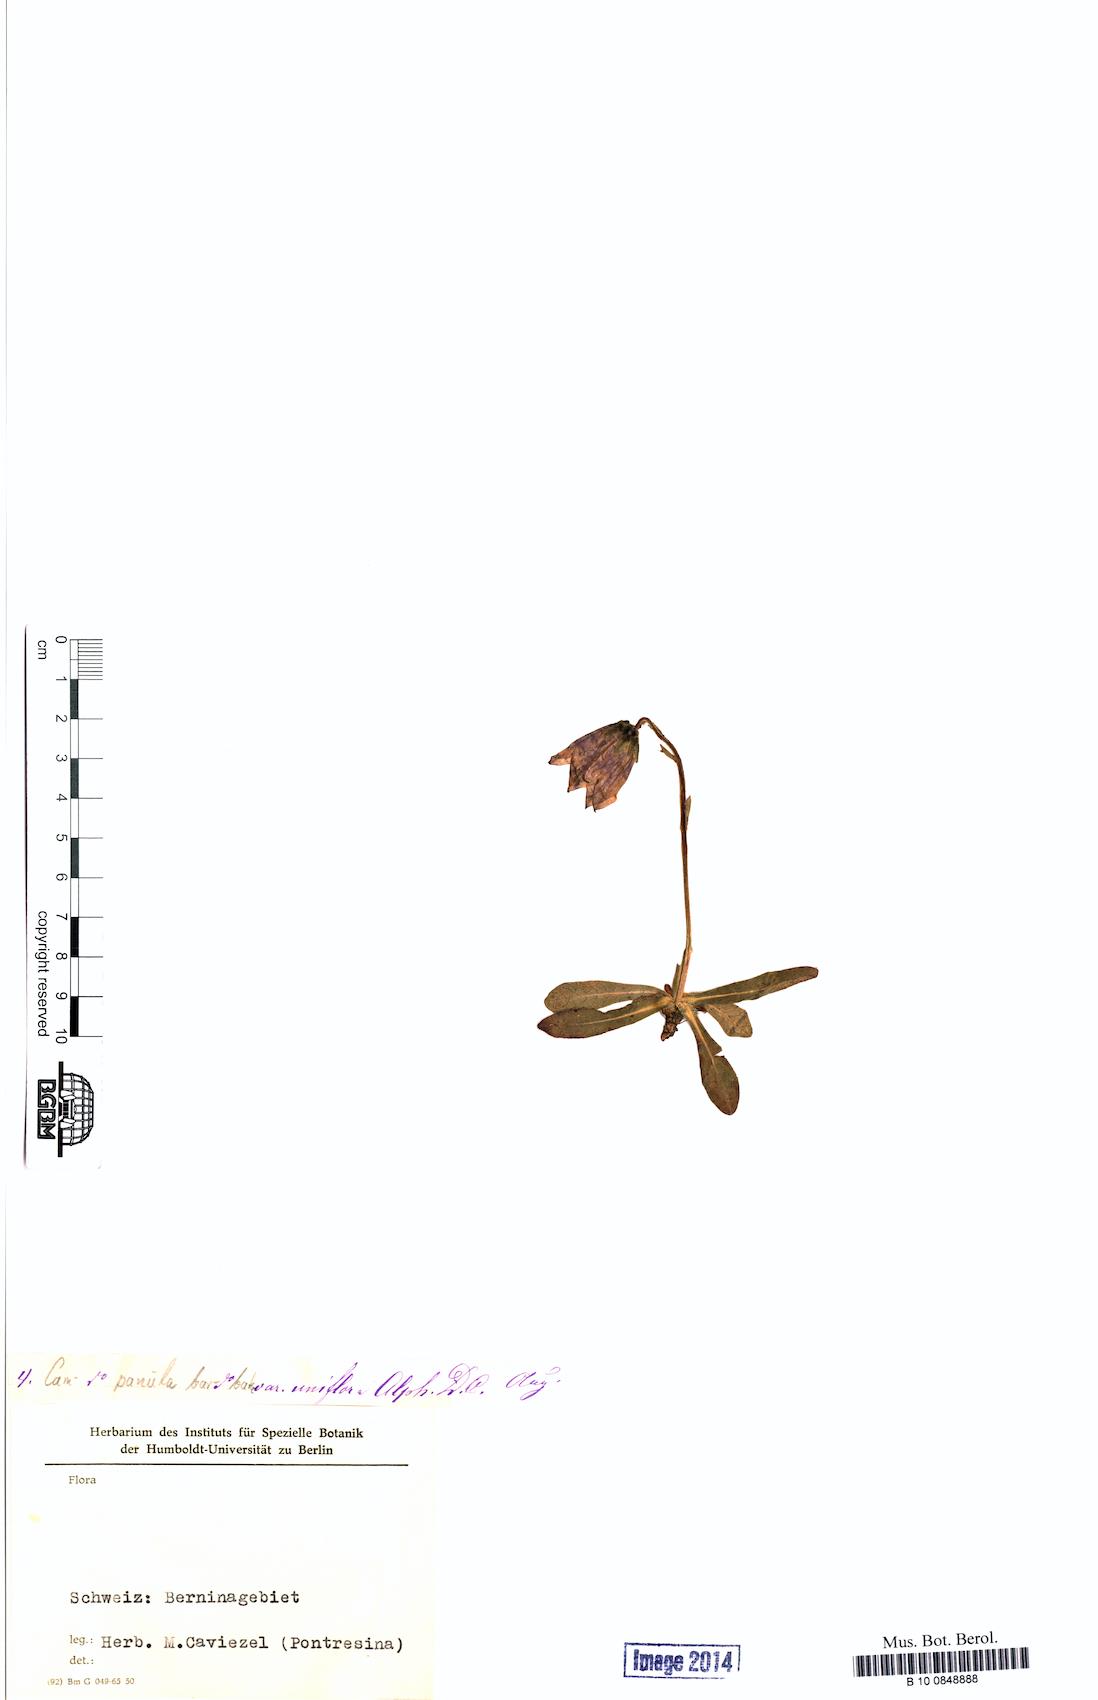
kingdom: Plantae
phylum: Tracheophyta
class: Magnoliopsida
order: Asterales
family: Campanulaceae
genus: Campanula
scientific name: Campanula barbata
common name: Bearded bellflower
